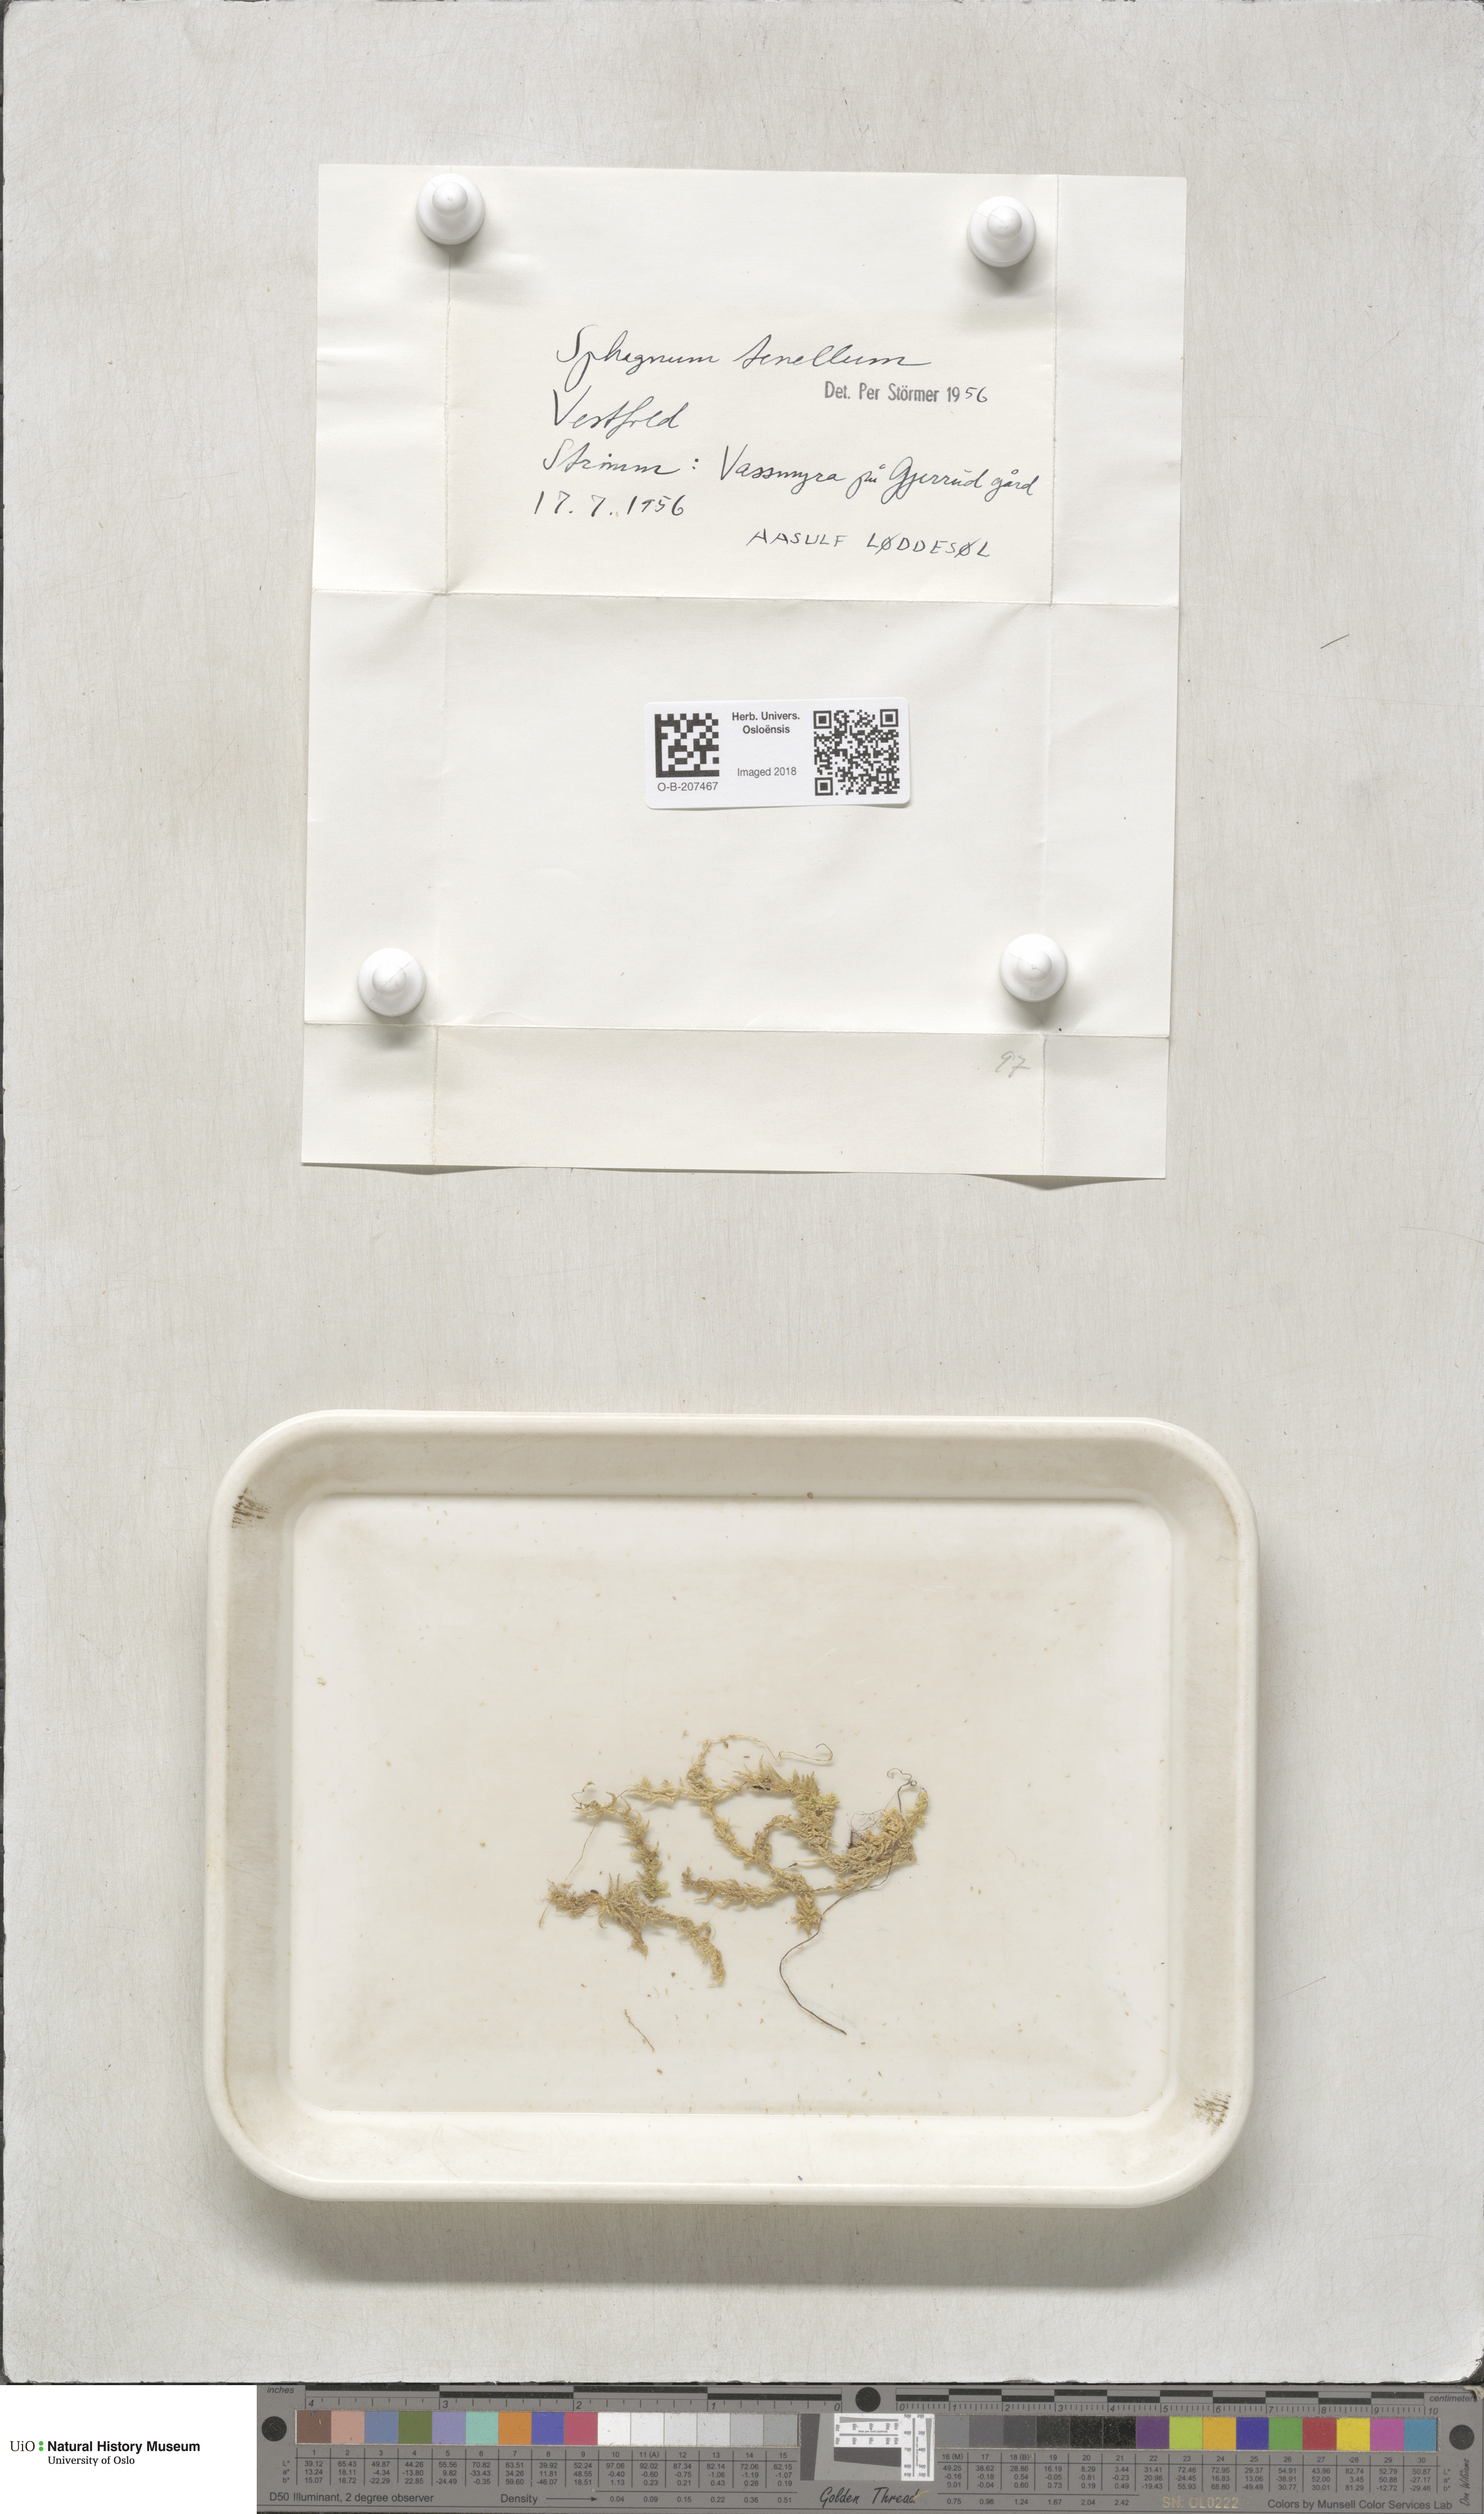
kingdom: Plantae
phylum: Bryophyta
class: Sphagnopsida
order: Sphagnales
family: Sphagnaceae
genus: Sphagnum
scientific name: Sphagnum tenellum
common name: Soft bog-moss
